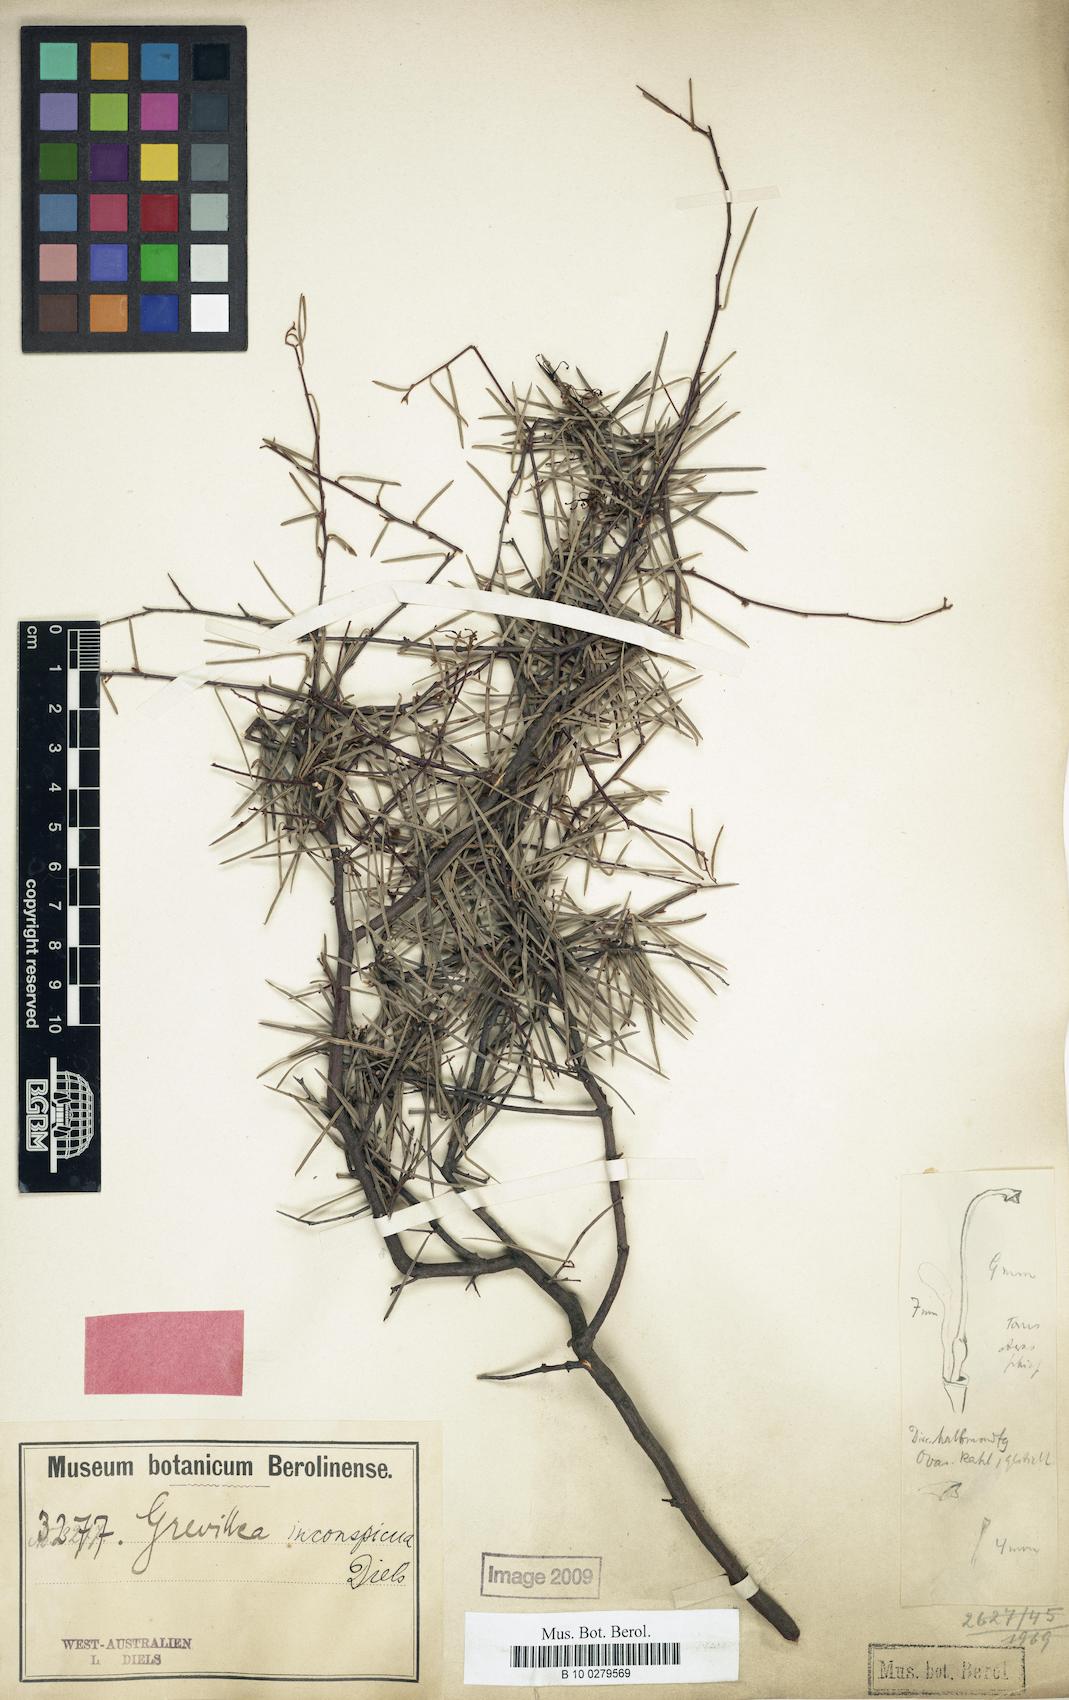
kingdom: Plantae
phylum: Tracheophyta
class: Magnoliopsida
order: Proteales
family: Proteaceae
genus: Grevillea
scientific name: Grevillea inconspicua
